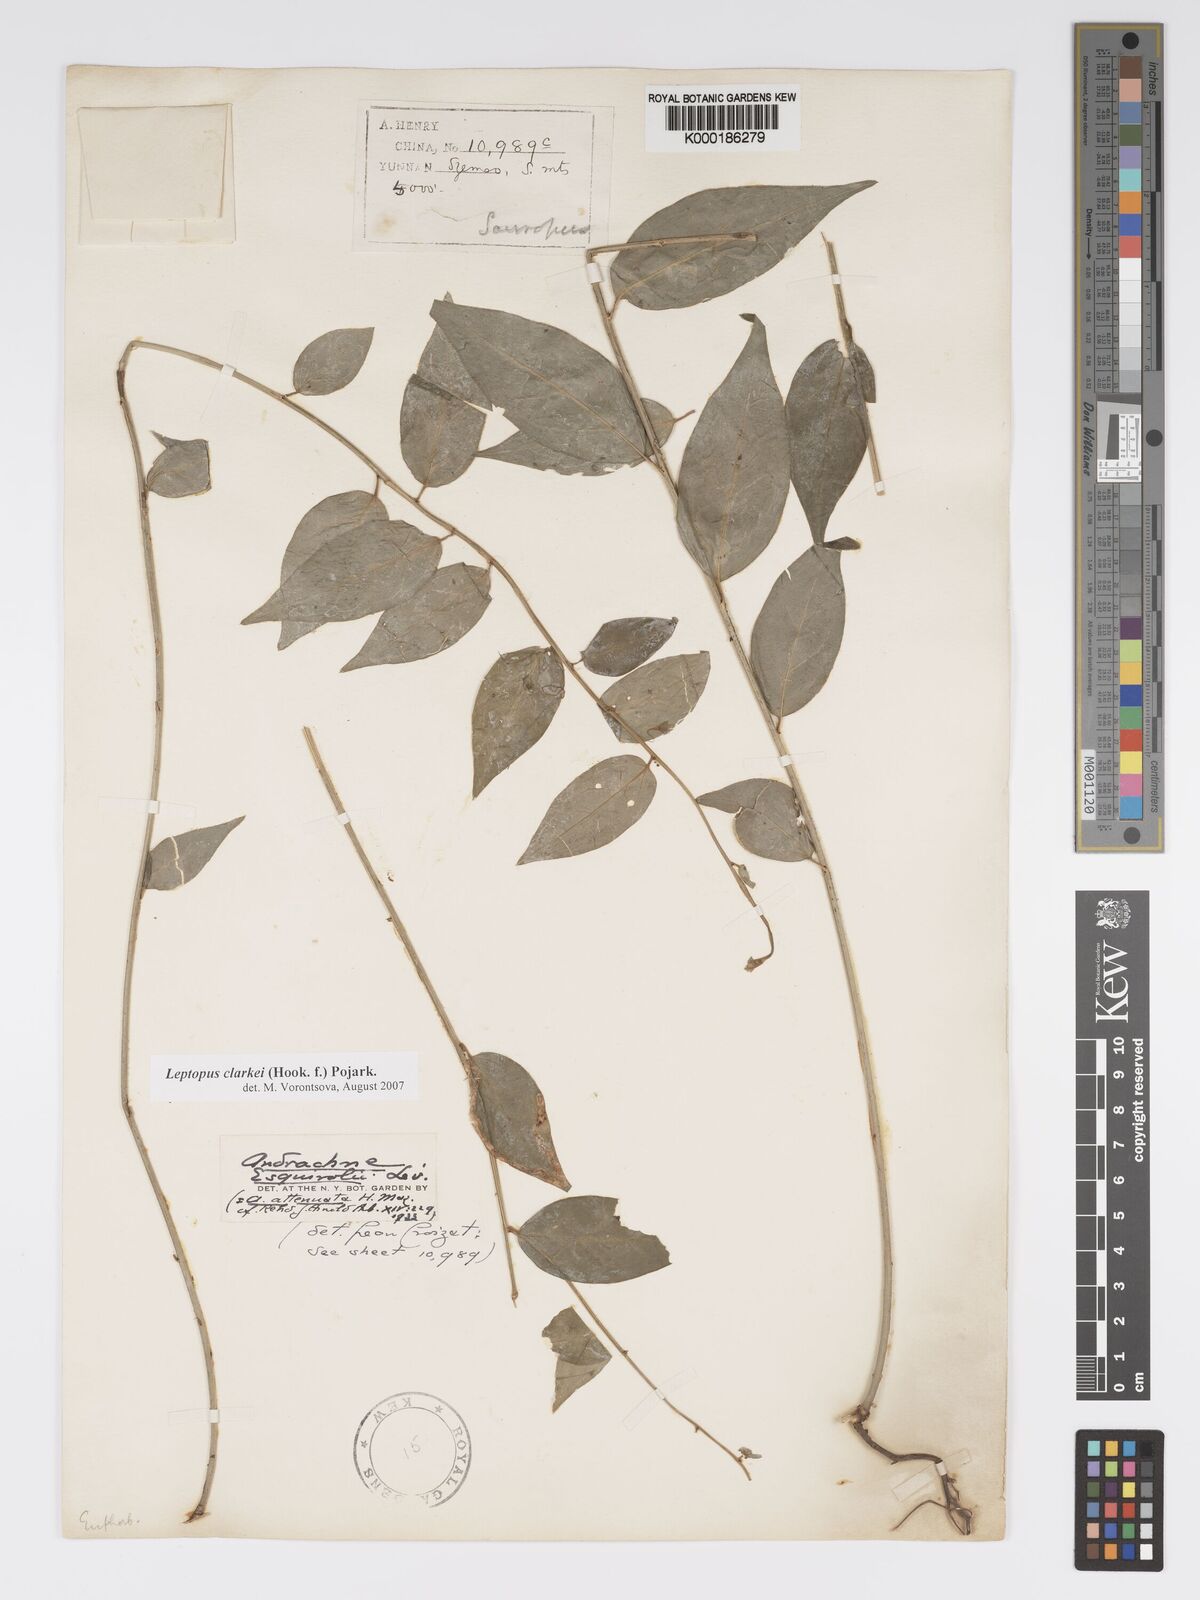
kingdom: Plantae
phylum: Tracheophyta
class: Magnoliopsida
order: Malpighiales
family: Phyllanthaceae
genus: Leptopus
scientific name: Leptopus clarkei
